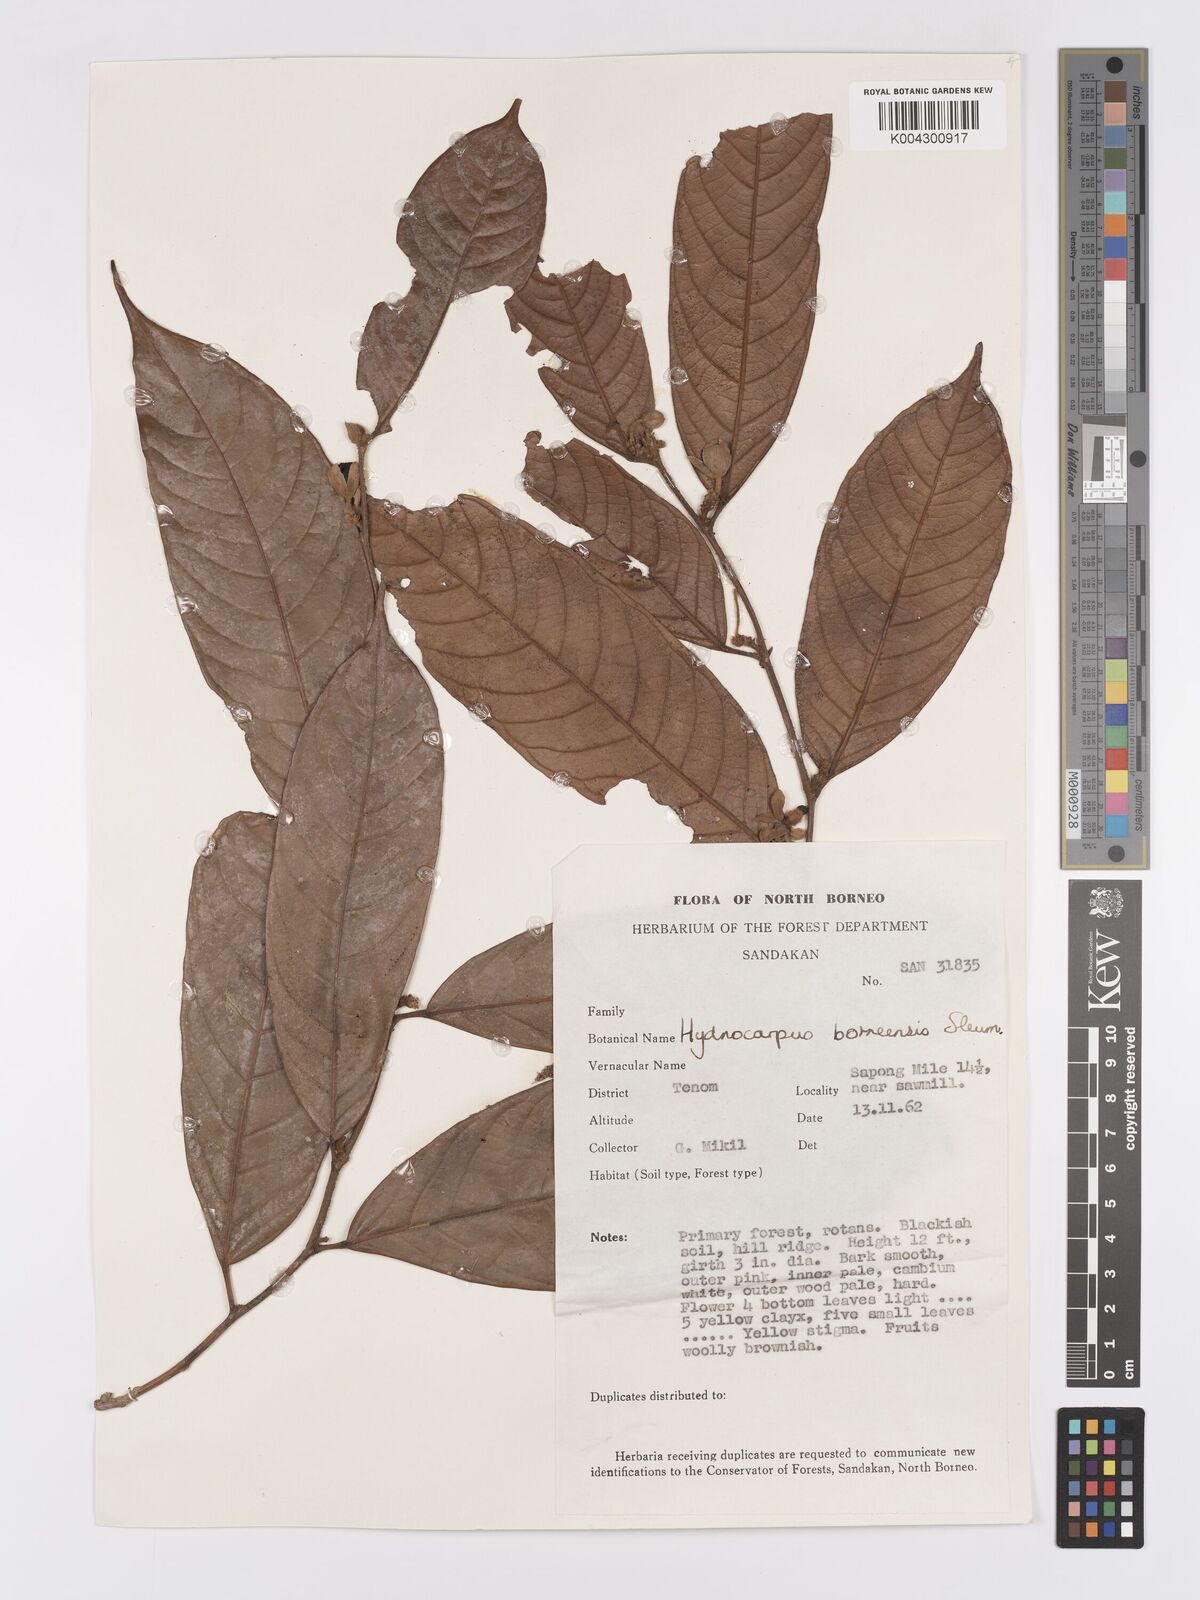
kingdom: Plantae
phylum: Tracheophyta
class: Magnoliopsida
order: Malpighiales
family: Achariaceae
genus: Hydnocarpus
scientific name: Hydnocarpus borneensis
